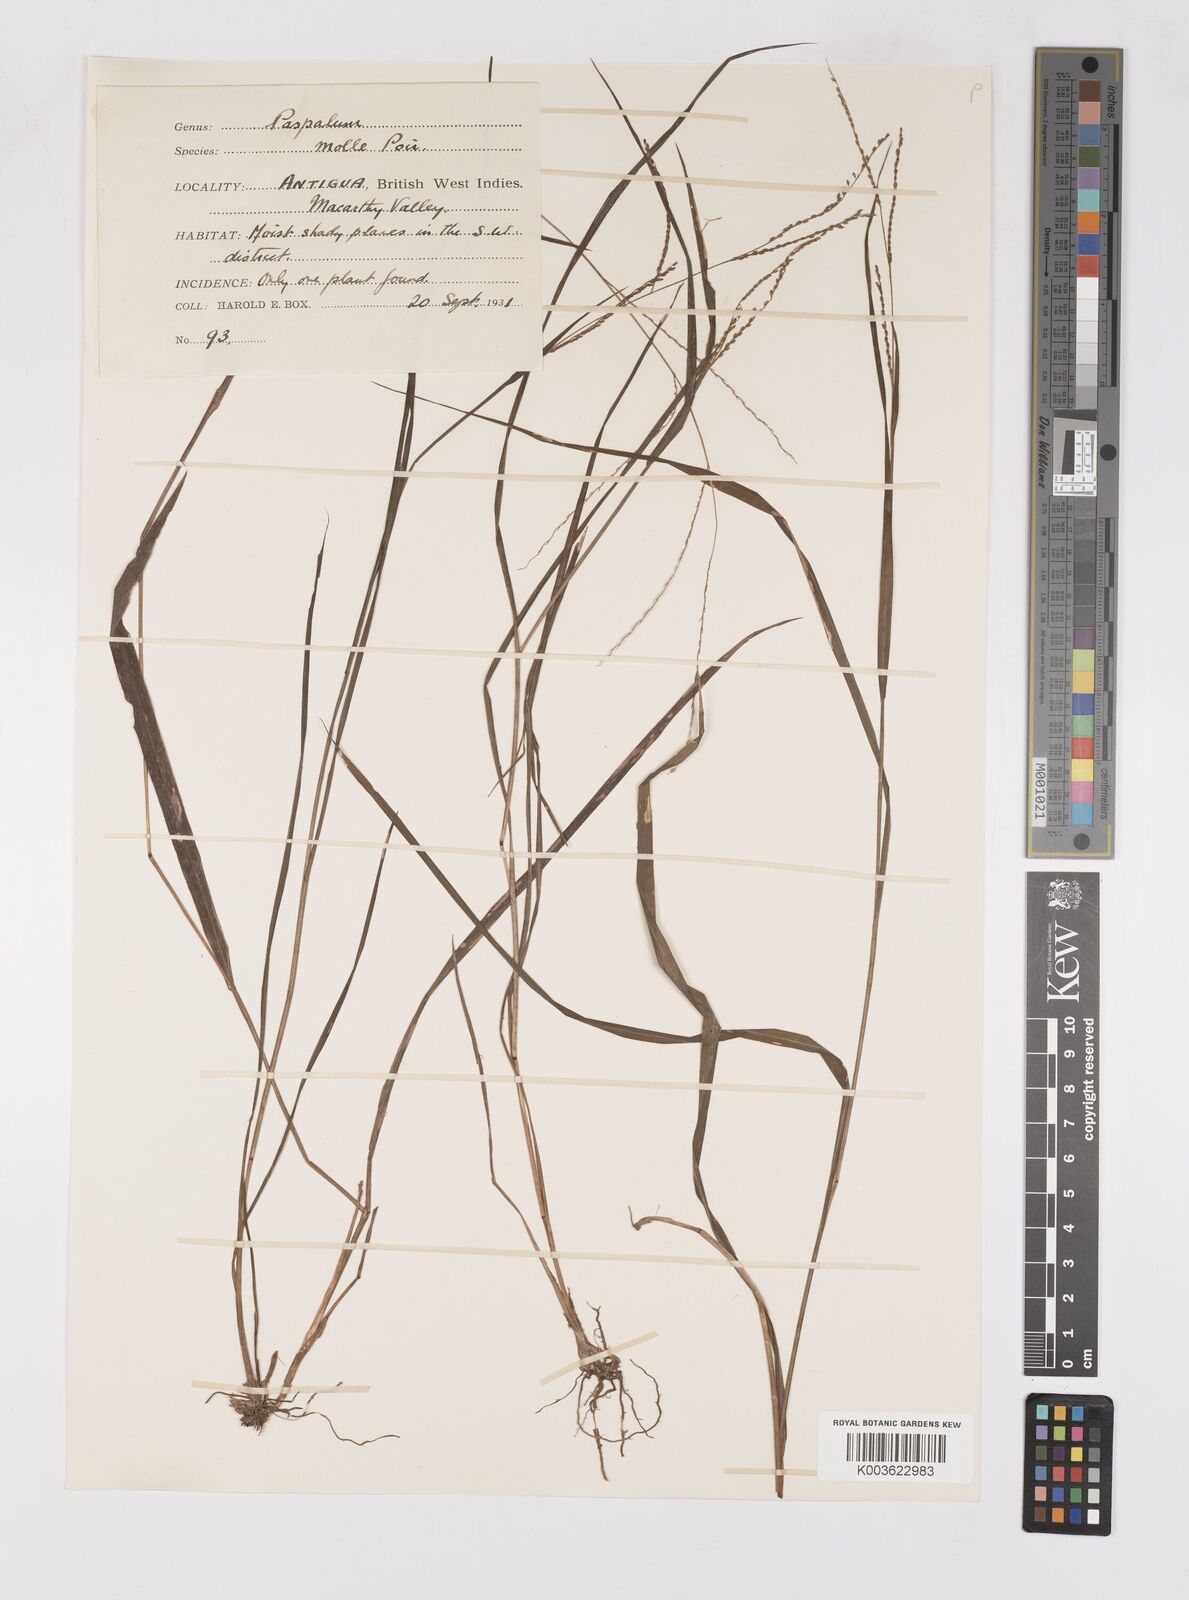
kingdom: Plantae
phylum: Tracheophyta
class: Liliopsida
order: Poales
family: Poaceae
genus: Paspalum
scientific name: Paspalum molle
